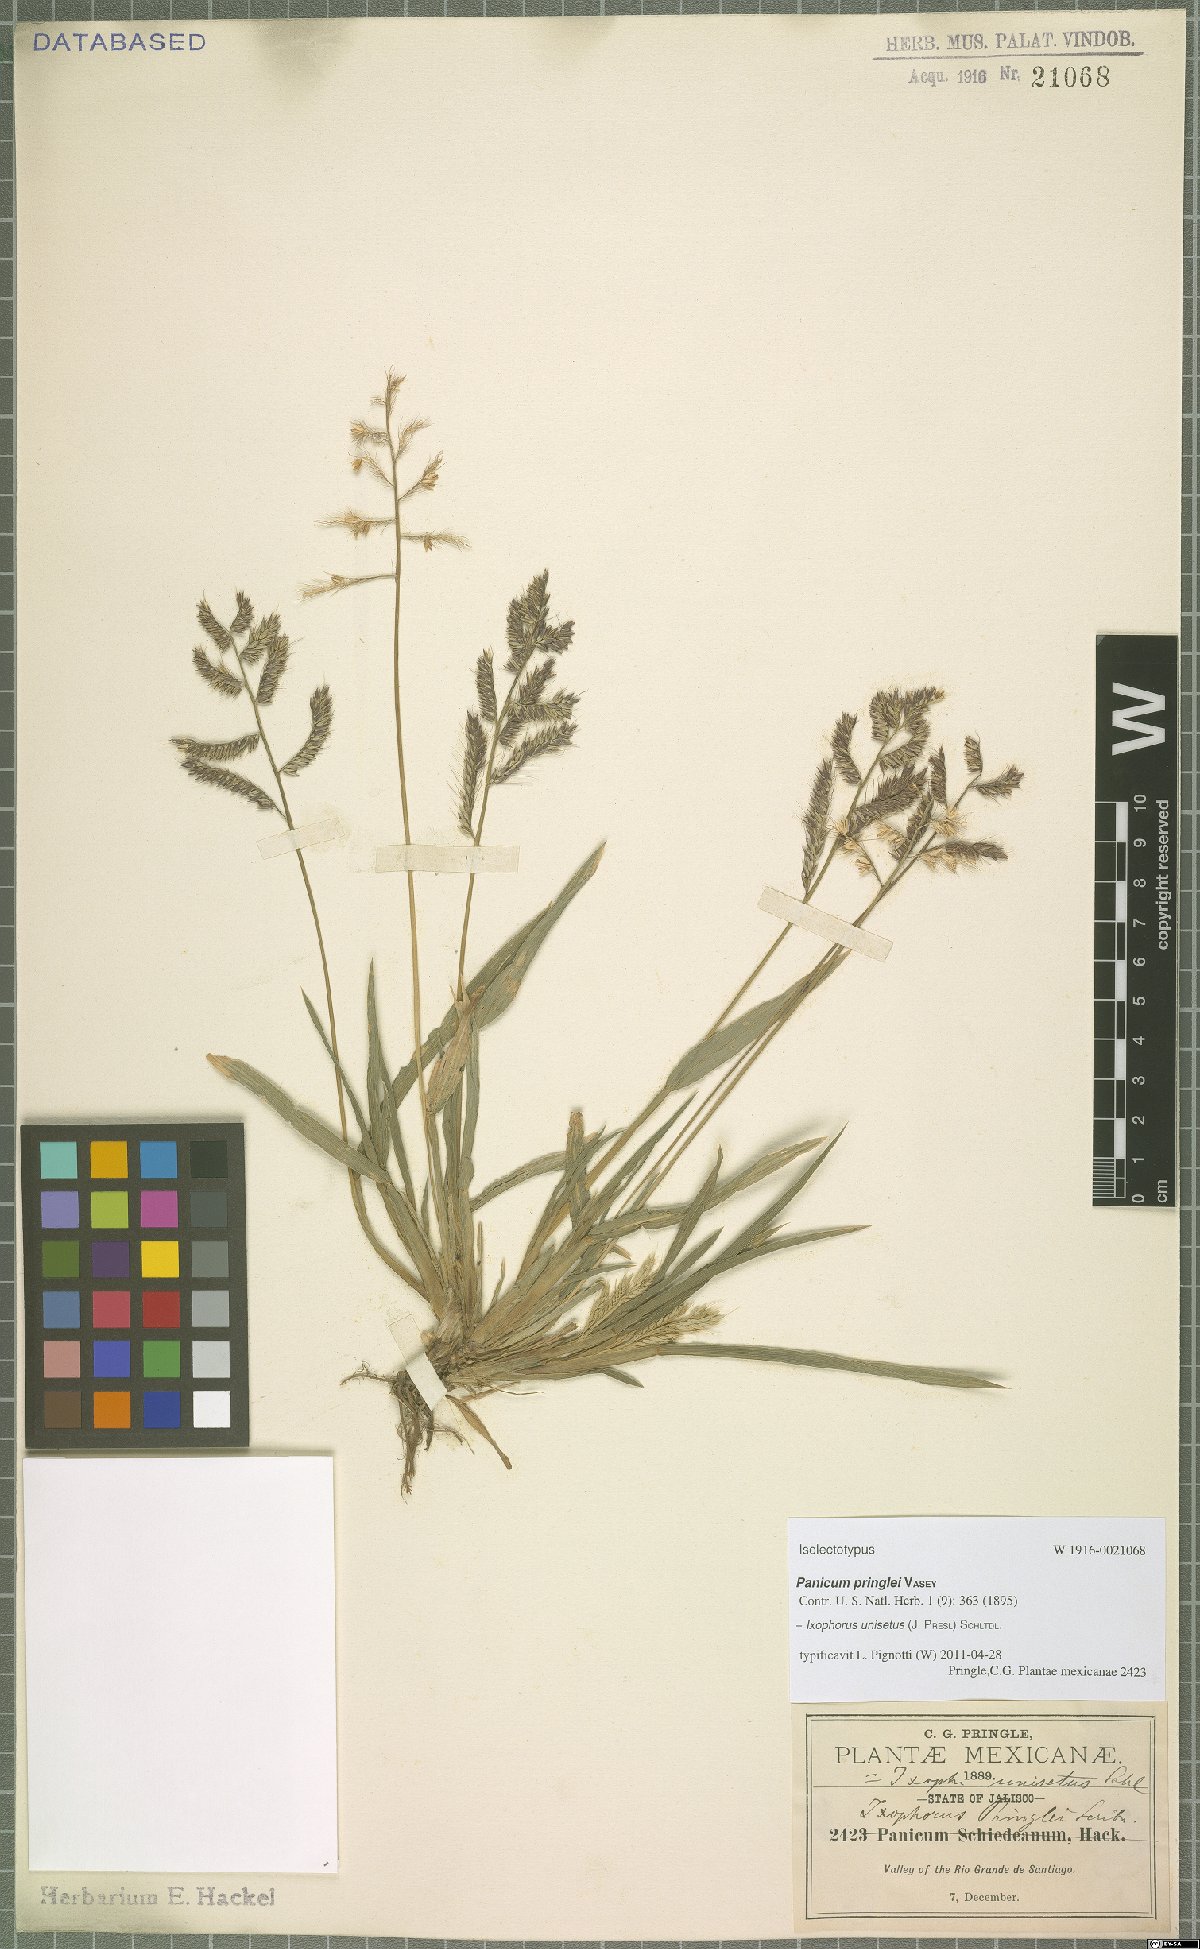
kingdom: Plantae
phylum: Tracheophyta
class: Liliopsida
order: Poales
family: Poaceae
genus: Ixophorus
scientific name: Ixophorus unisetus
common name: Crane grass
